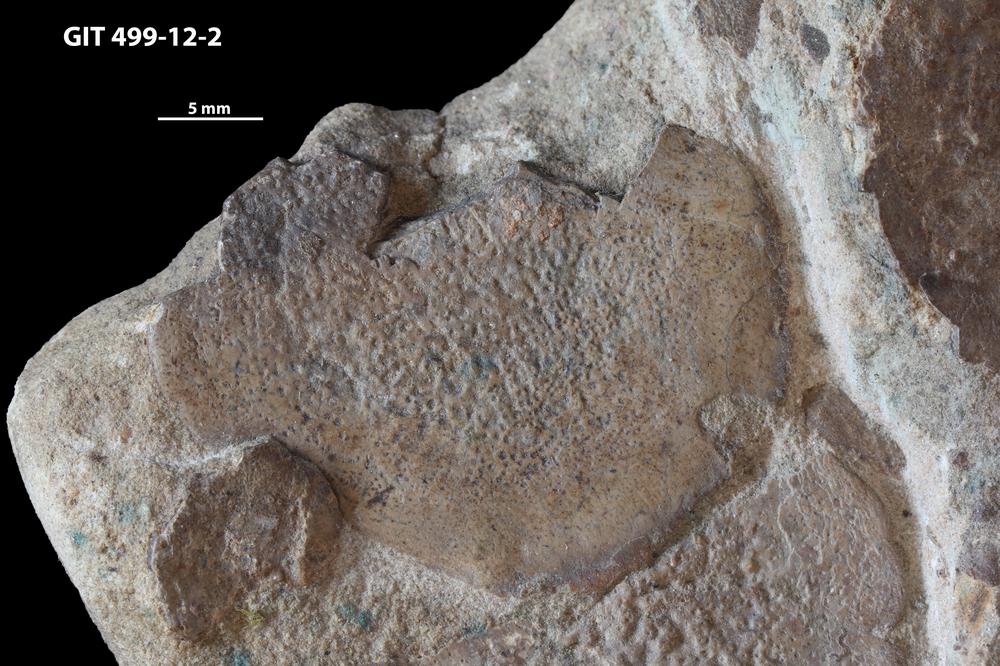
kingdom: Animalia
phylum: Chordata
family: Holoptychiidae
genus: Glyptolepis
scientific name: Glyptolepis
